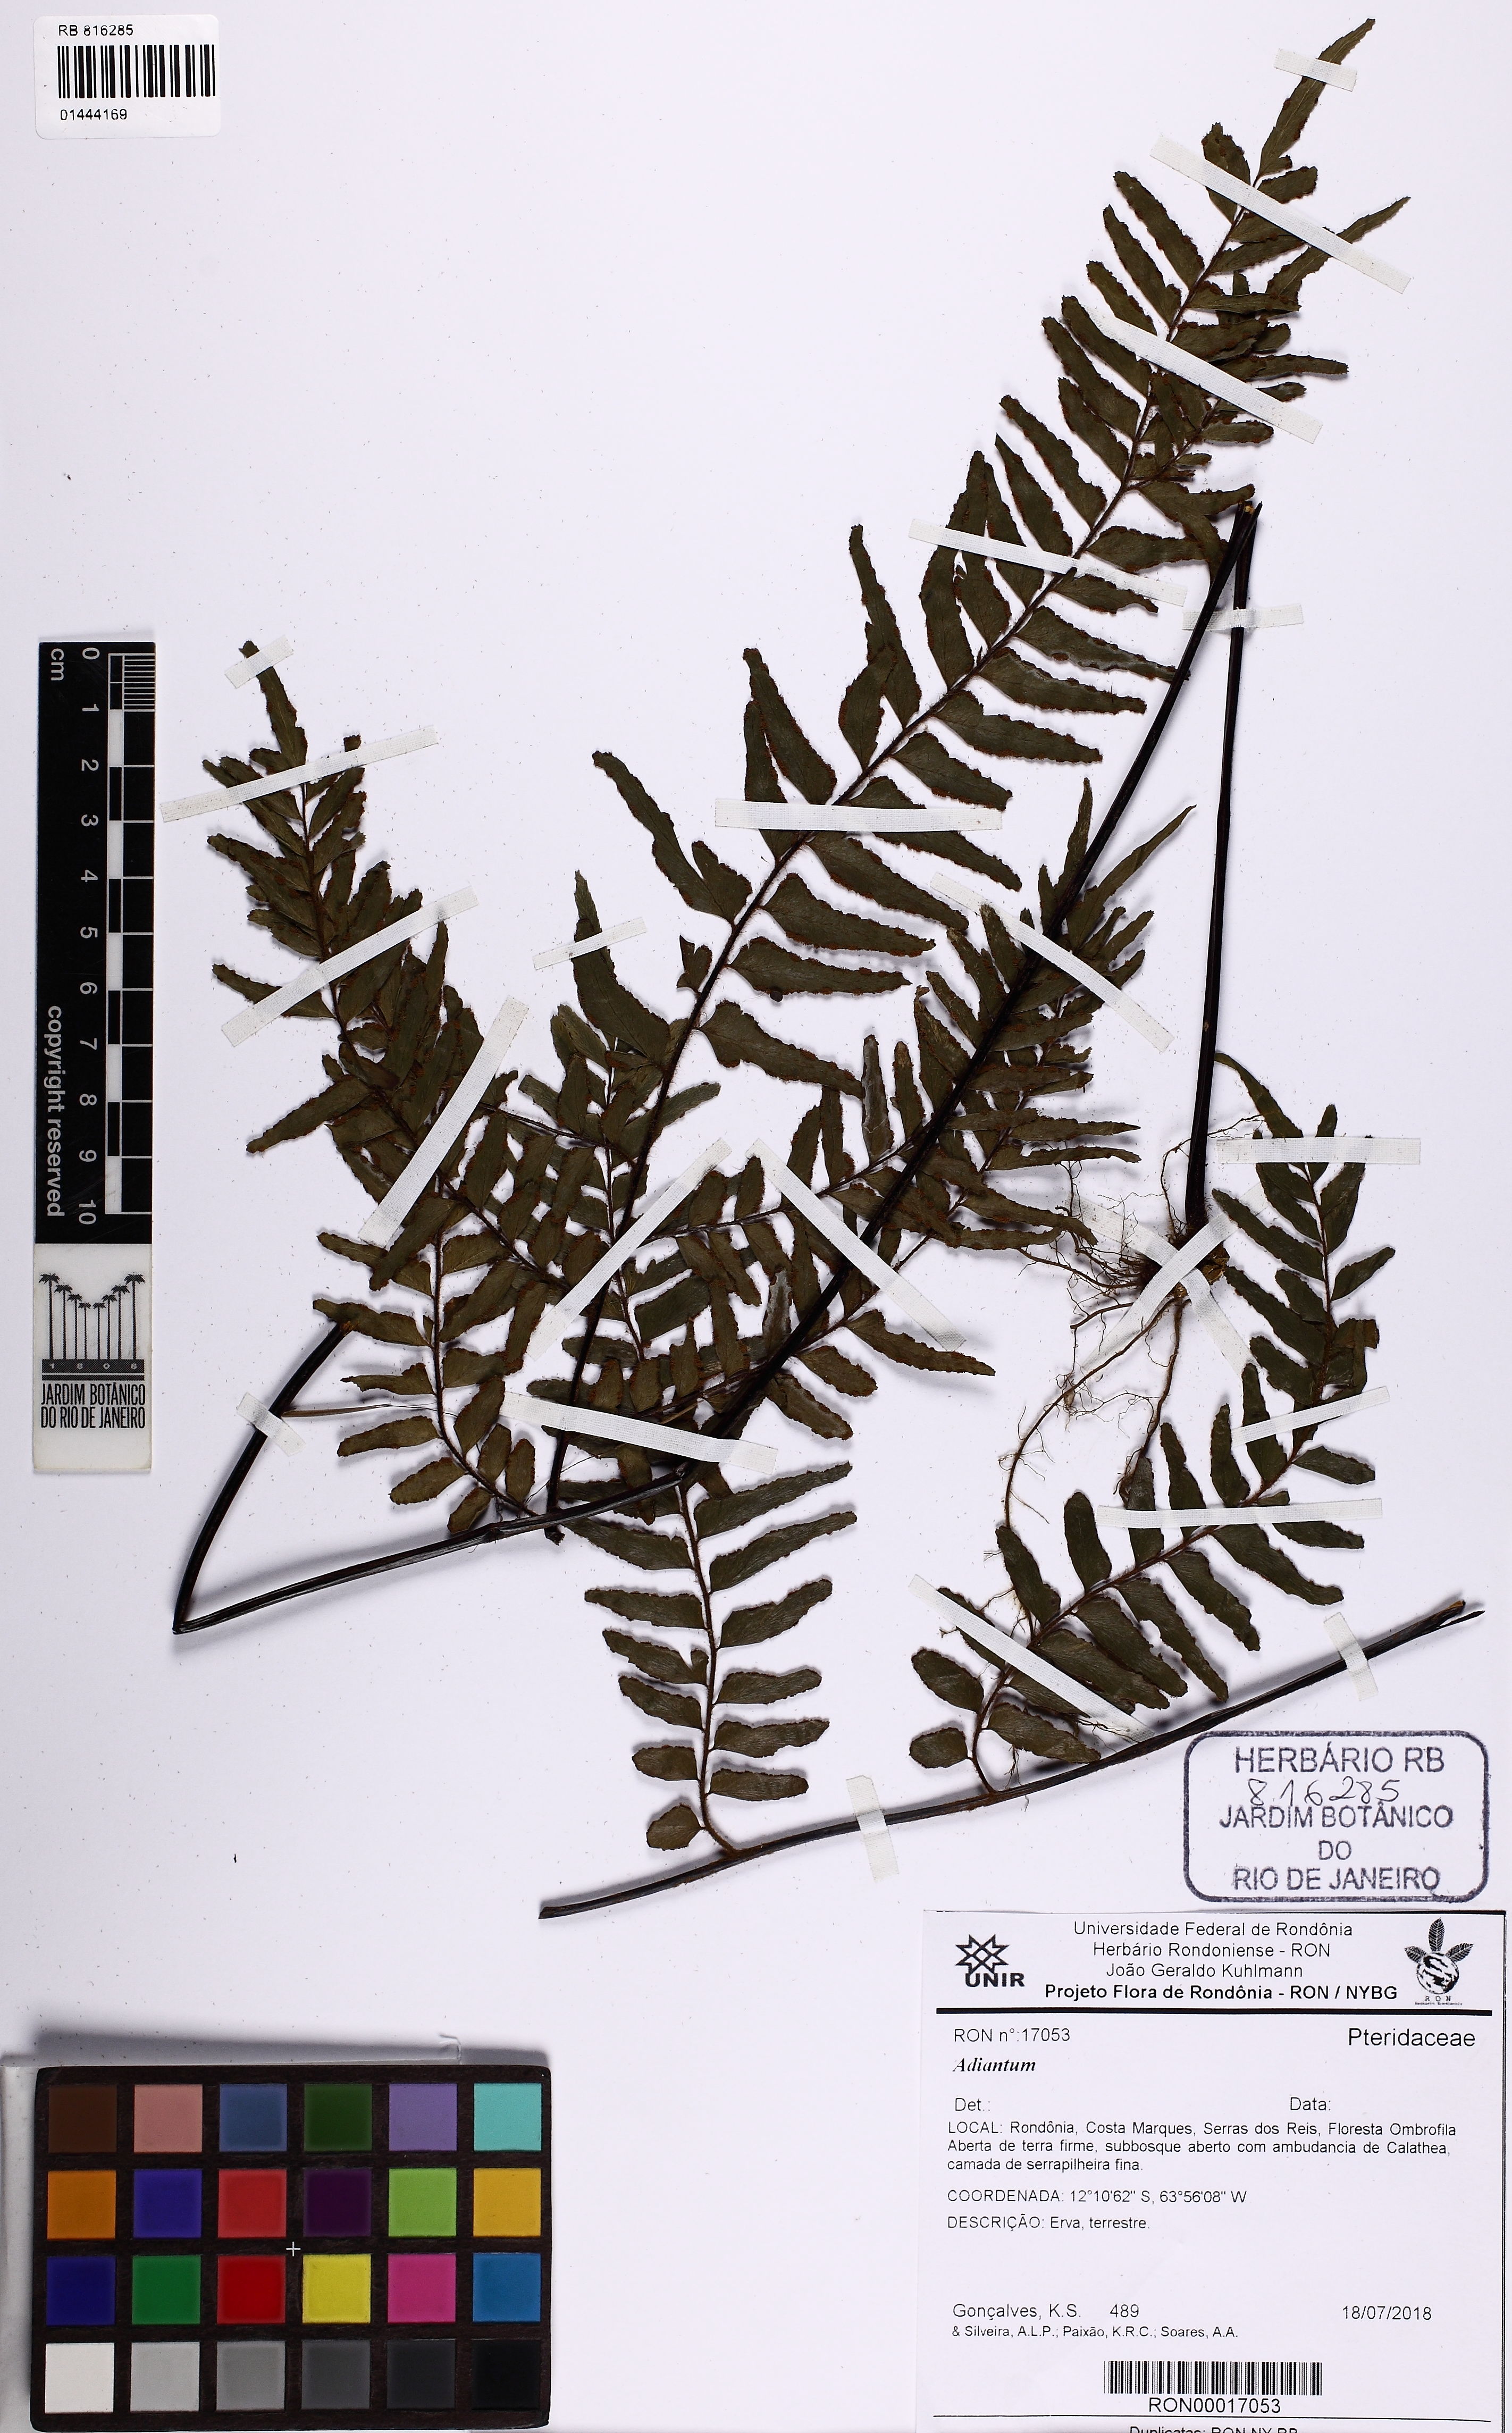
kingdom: Plantae
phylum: Tracheophyta
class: Polypodiopsida
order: Polypodiales
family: Pteridaceae
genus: Adiantum
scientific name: Adiantum
